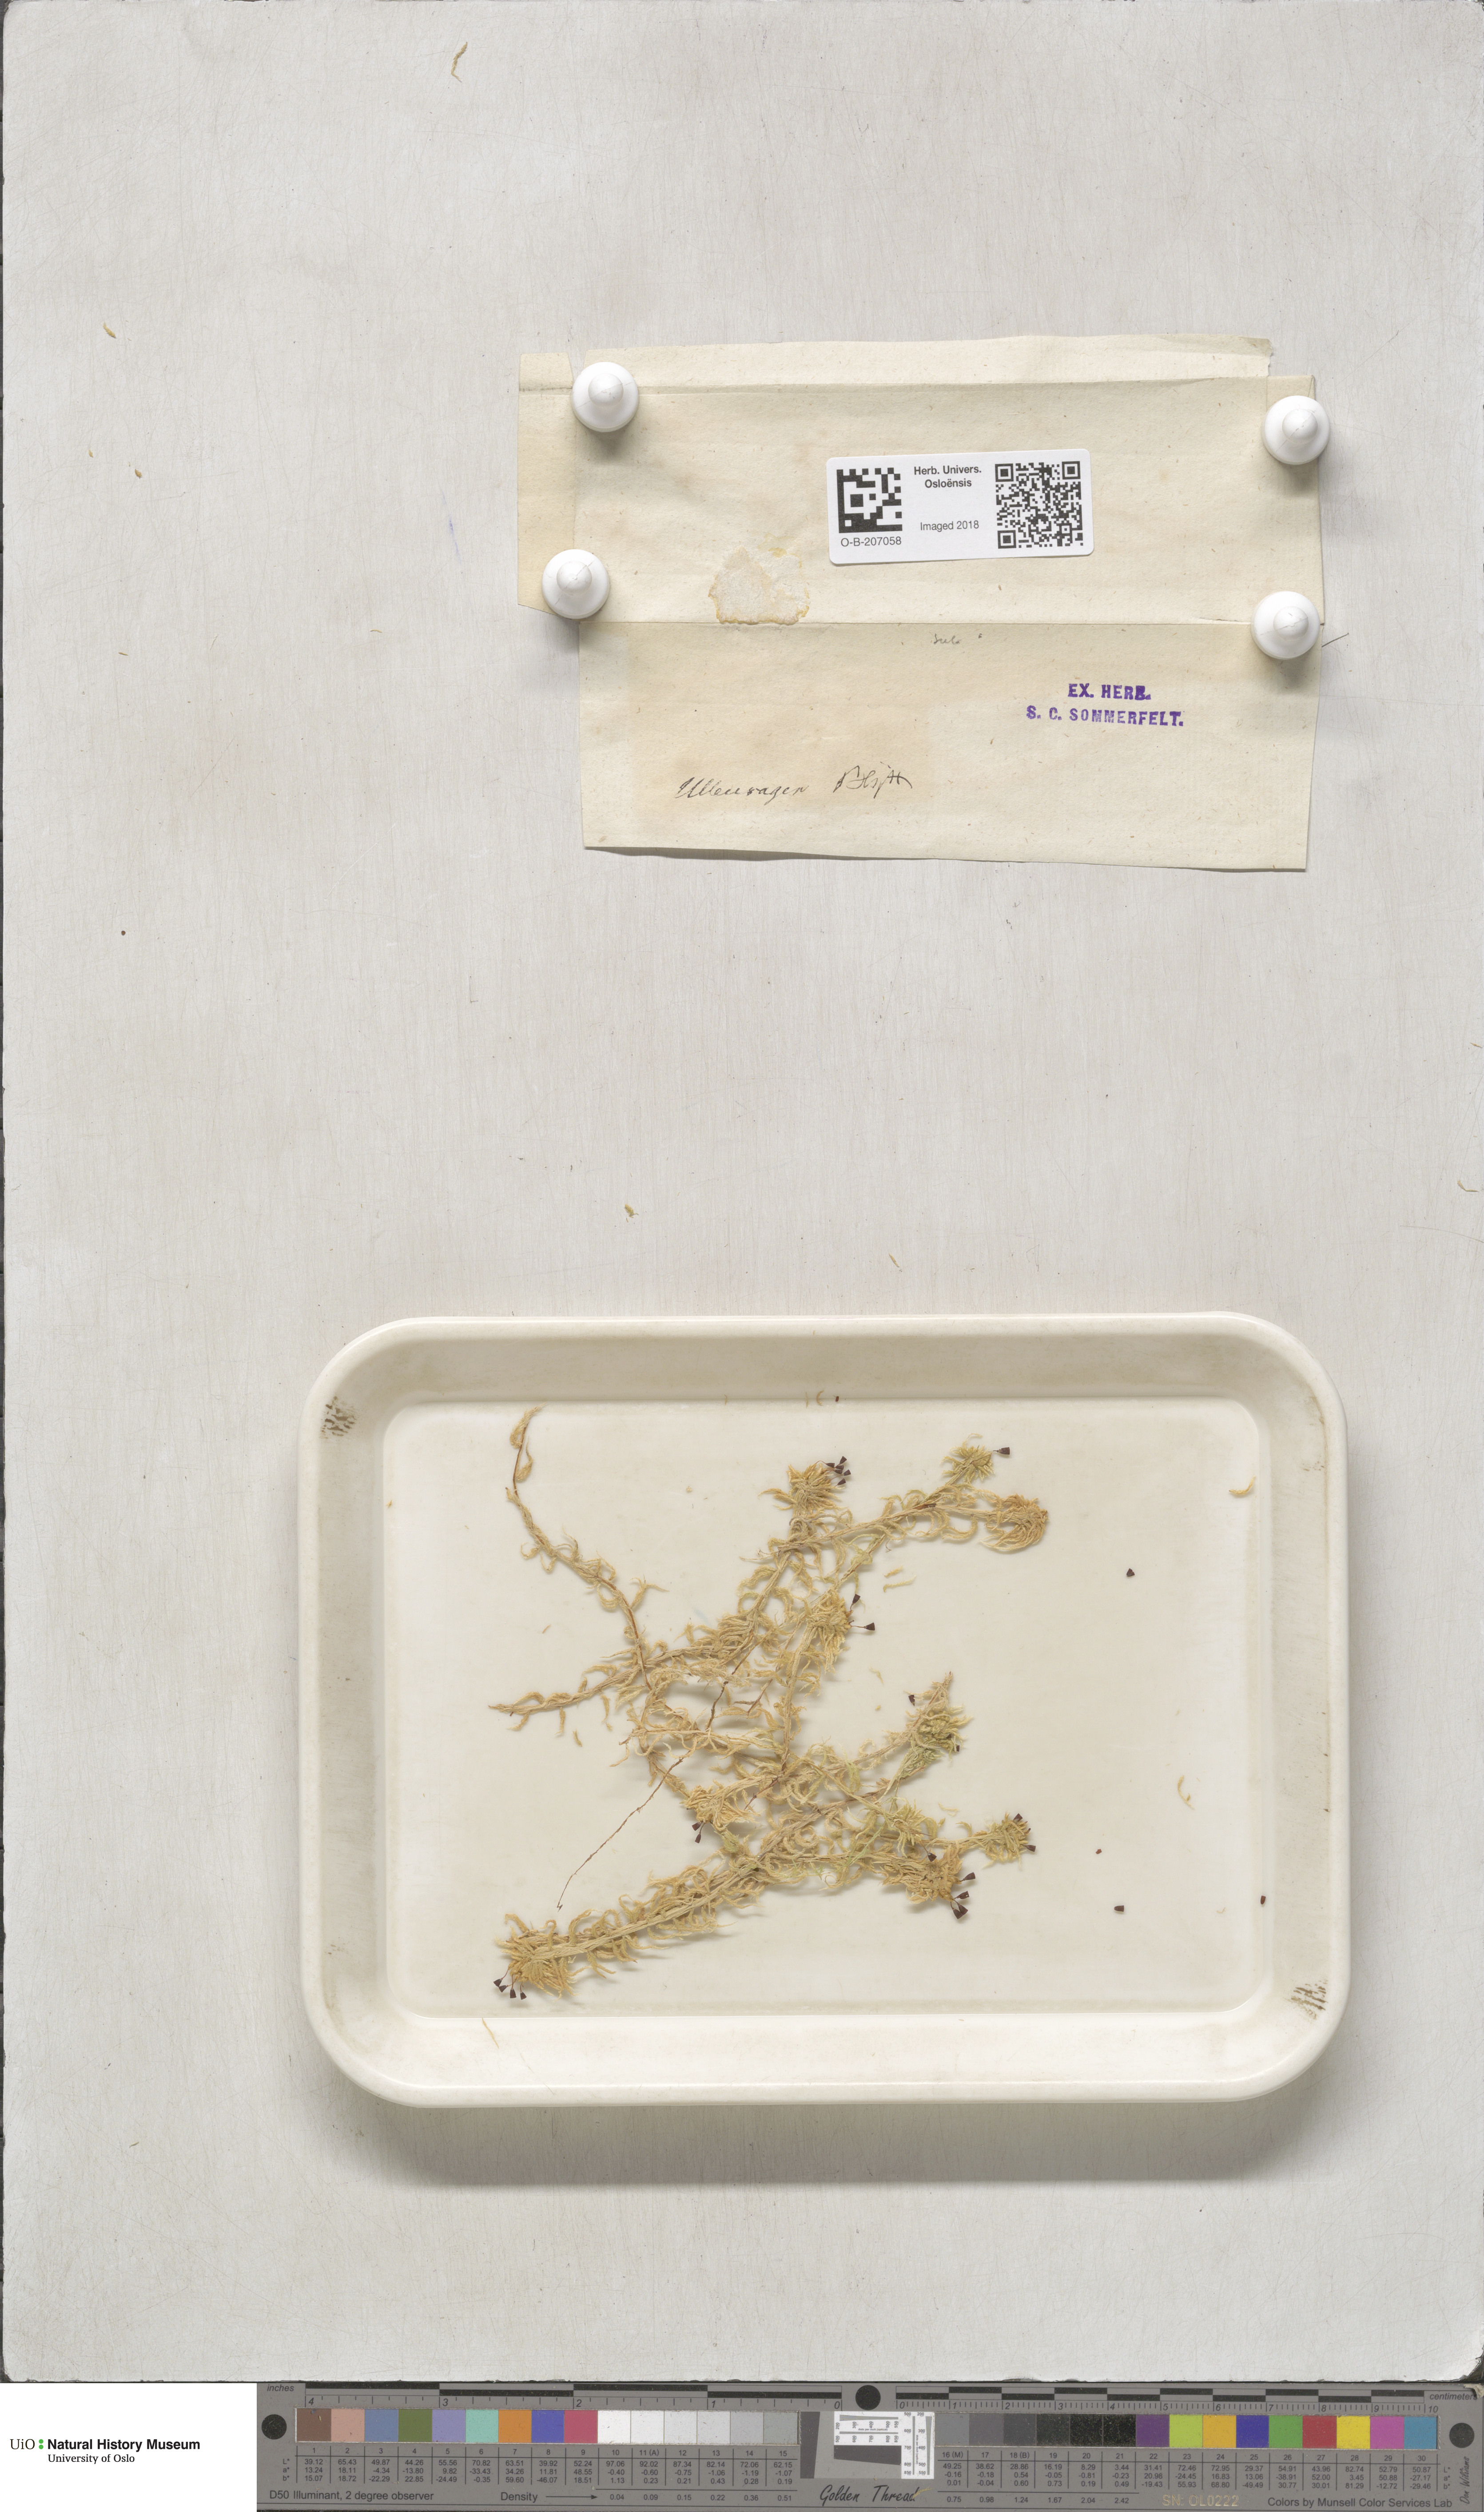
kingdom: Plantae
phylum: Bryophyta
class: Sphagnopsida
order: Sphagnales
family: Sphagnaceae
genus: Sphagnum
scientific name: Sphagnum subsecundum
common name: Orange peat moss
